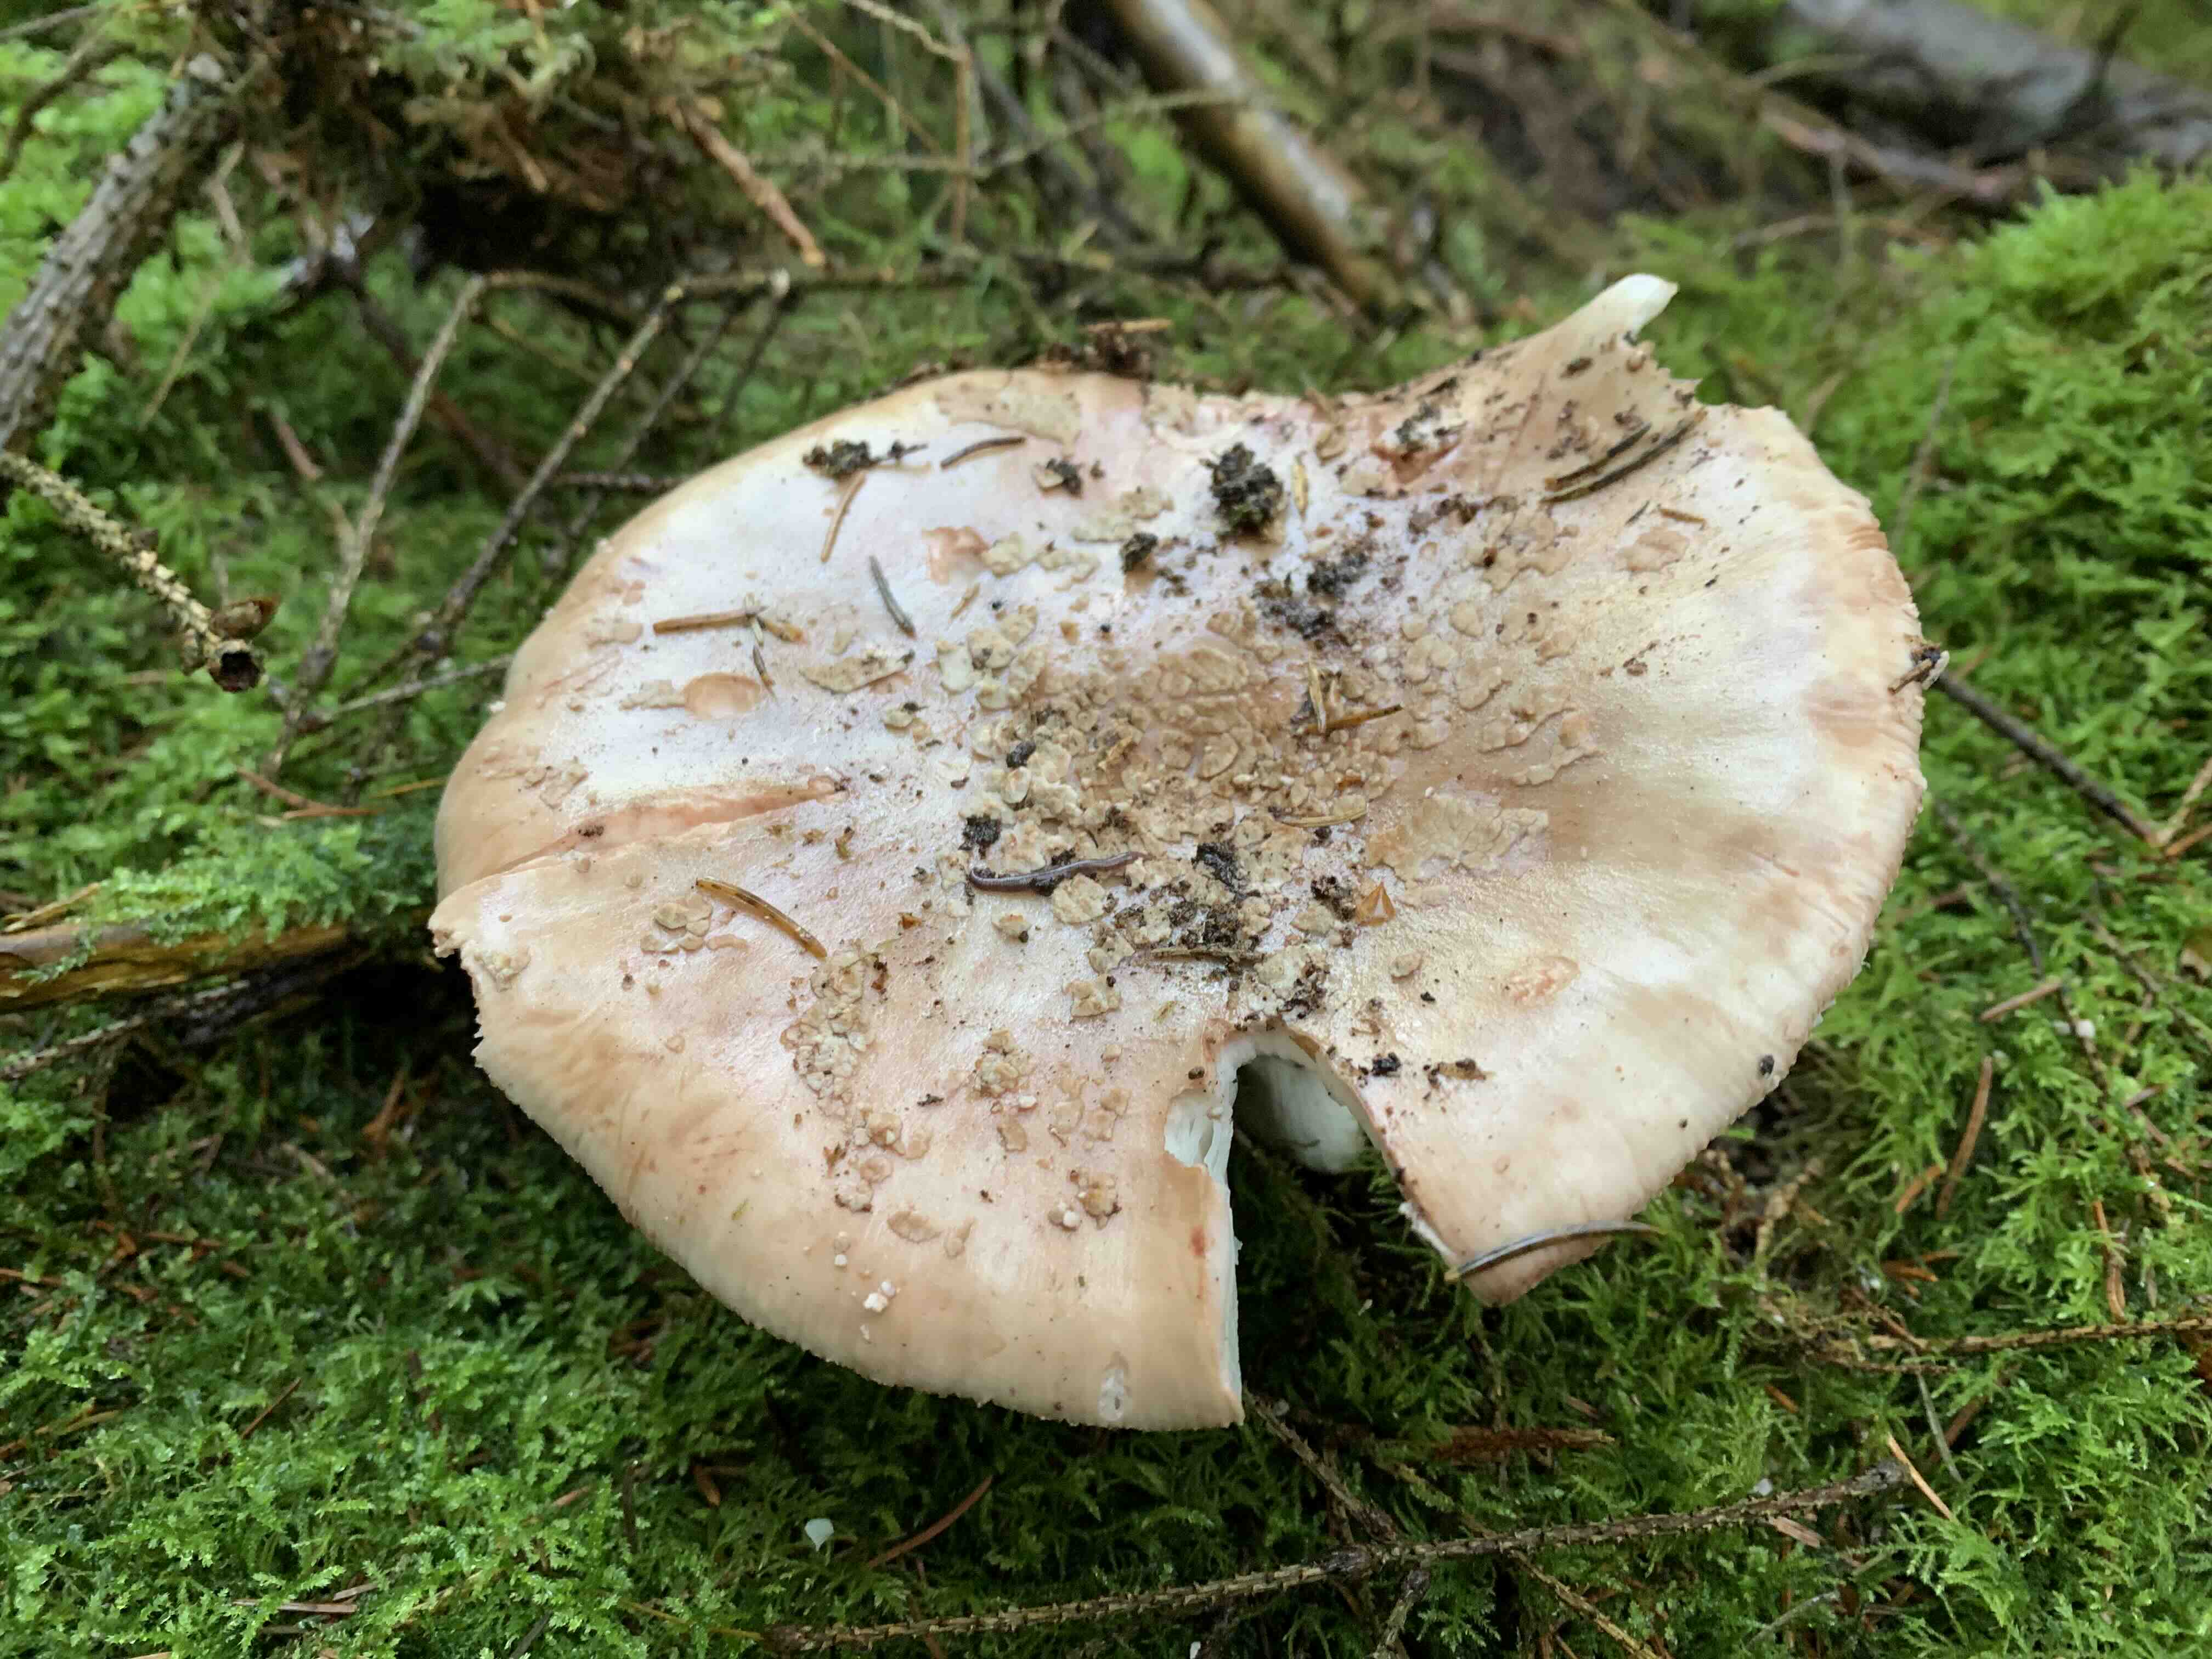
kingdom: Fungi
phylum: Basidiomycota
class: Agaricomycetes
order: Agaricales
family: Amanitaceae
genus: Amanita
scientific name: Amanita rubescens
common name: rødmende fluesvamp
